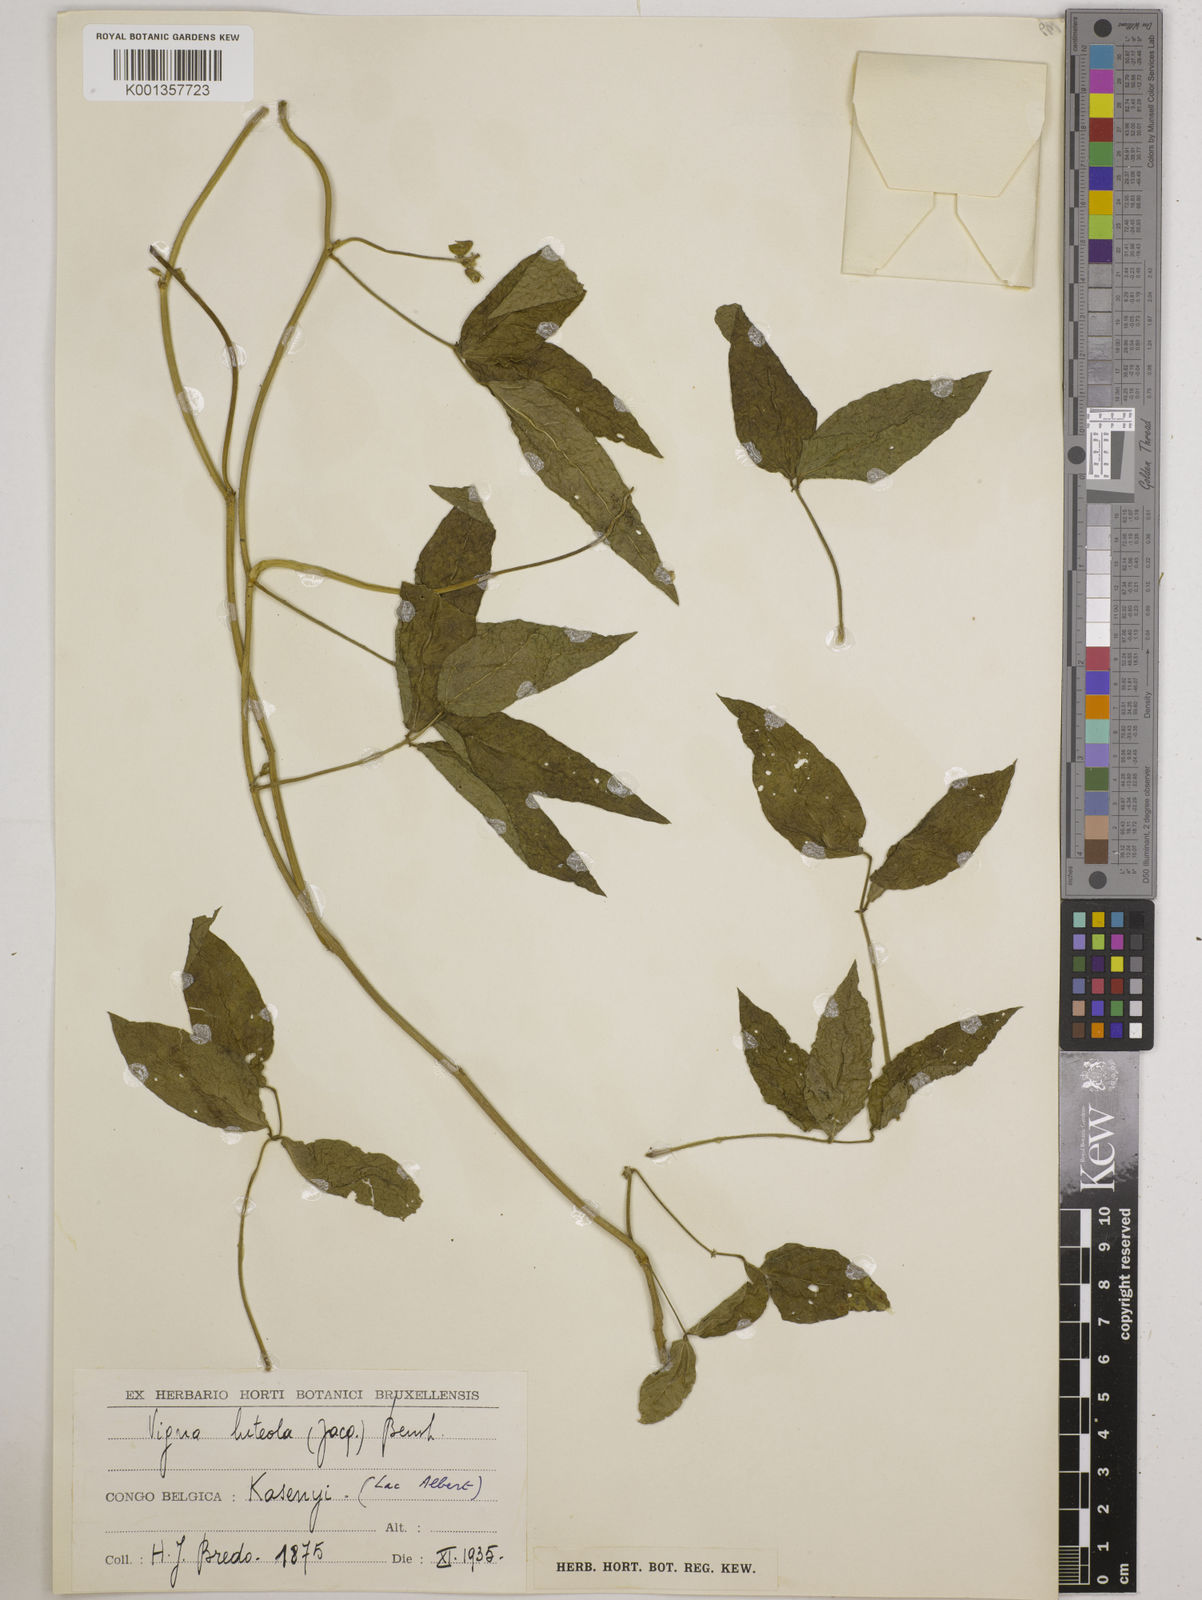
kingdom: Plantae
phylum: Tracheophyta
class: Magnoliopsida
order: Fabales
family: Fabaceae
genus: Vigna
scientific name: Vigna luteola
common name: Hairypod cowpea
